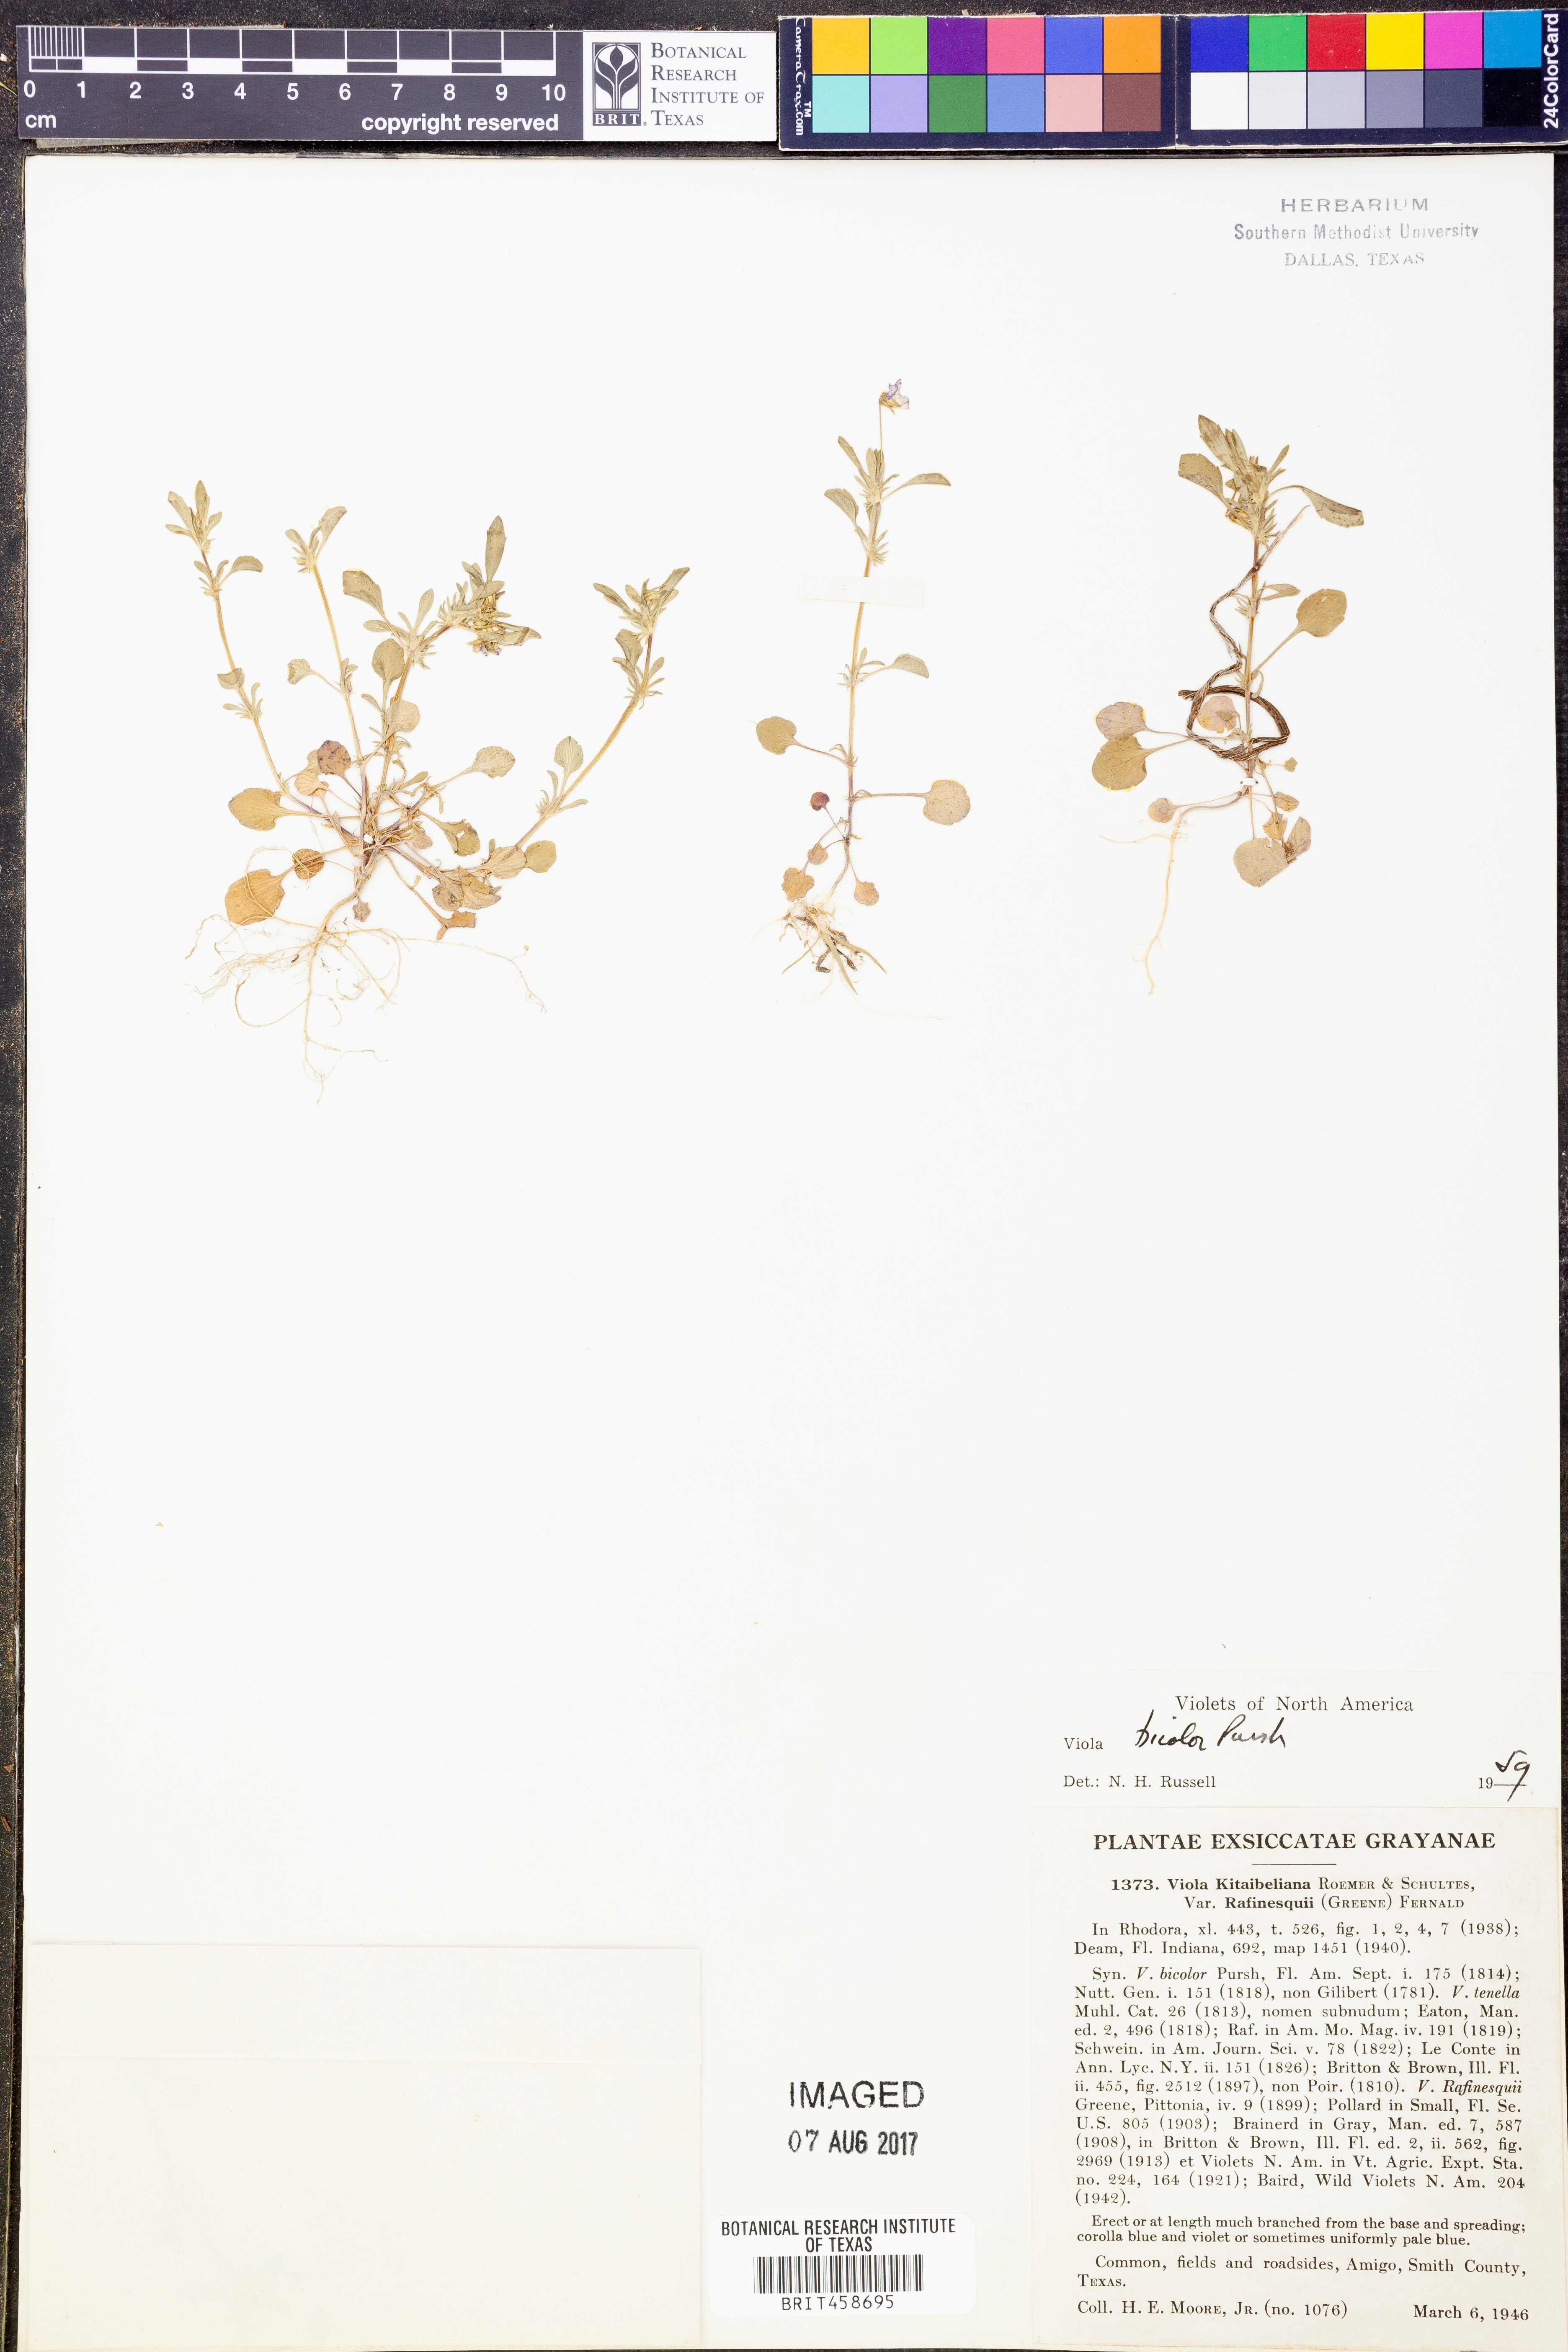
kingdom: Plantae
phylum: Tracheophyta
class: Magnoliopsida
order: Malpighiales
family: Violaceae
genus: Viola
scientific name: Viola rafinesquei
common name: American field pansy
